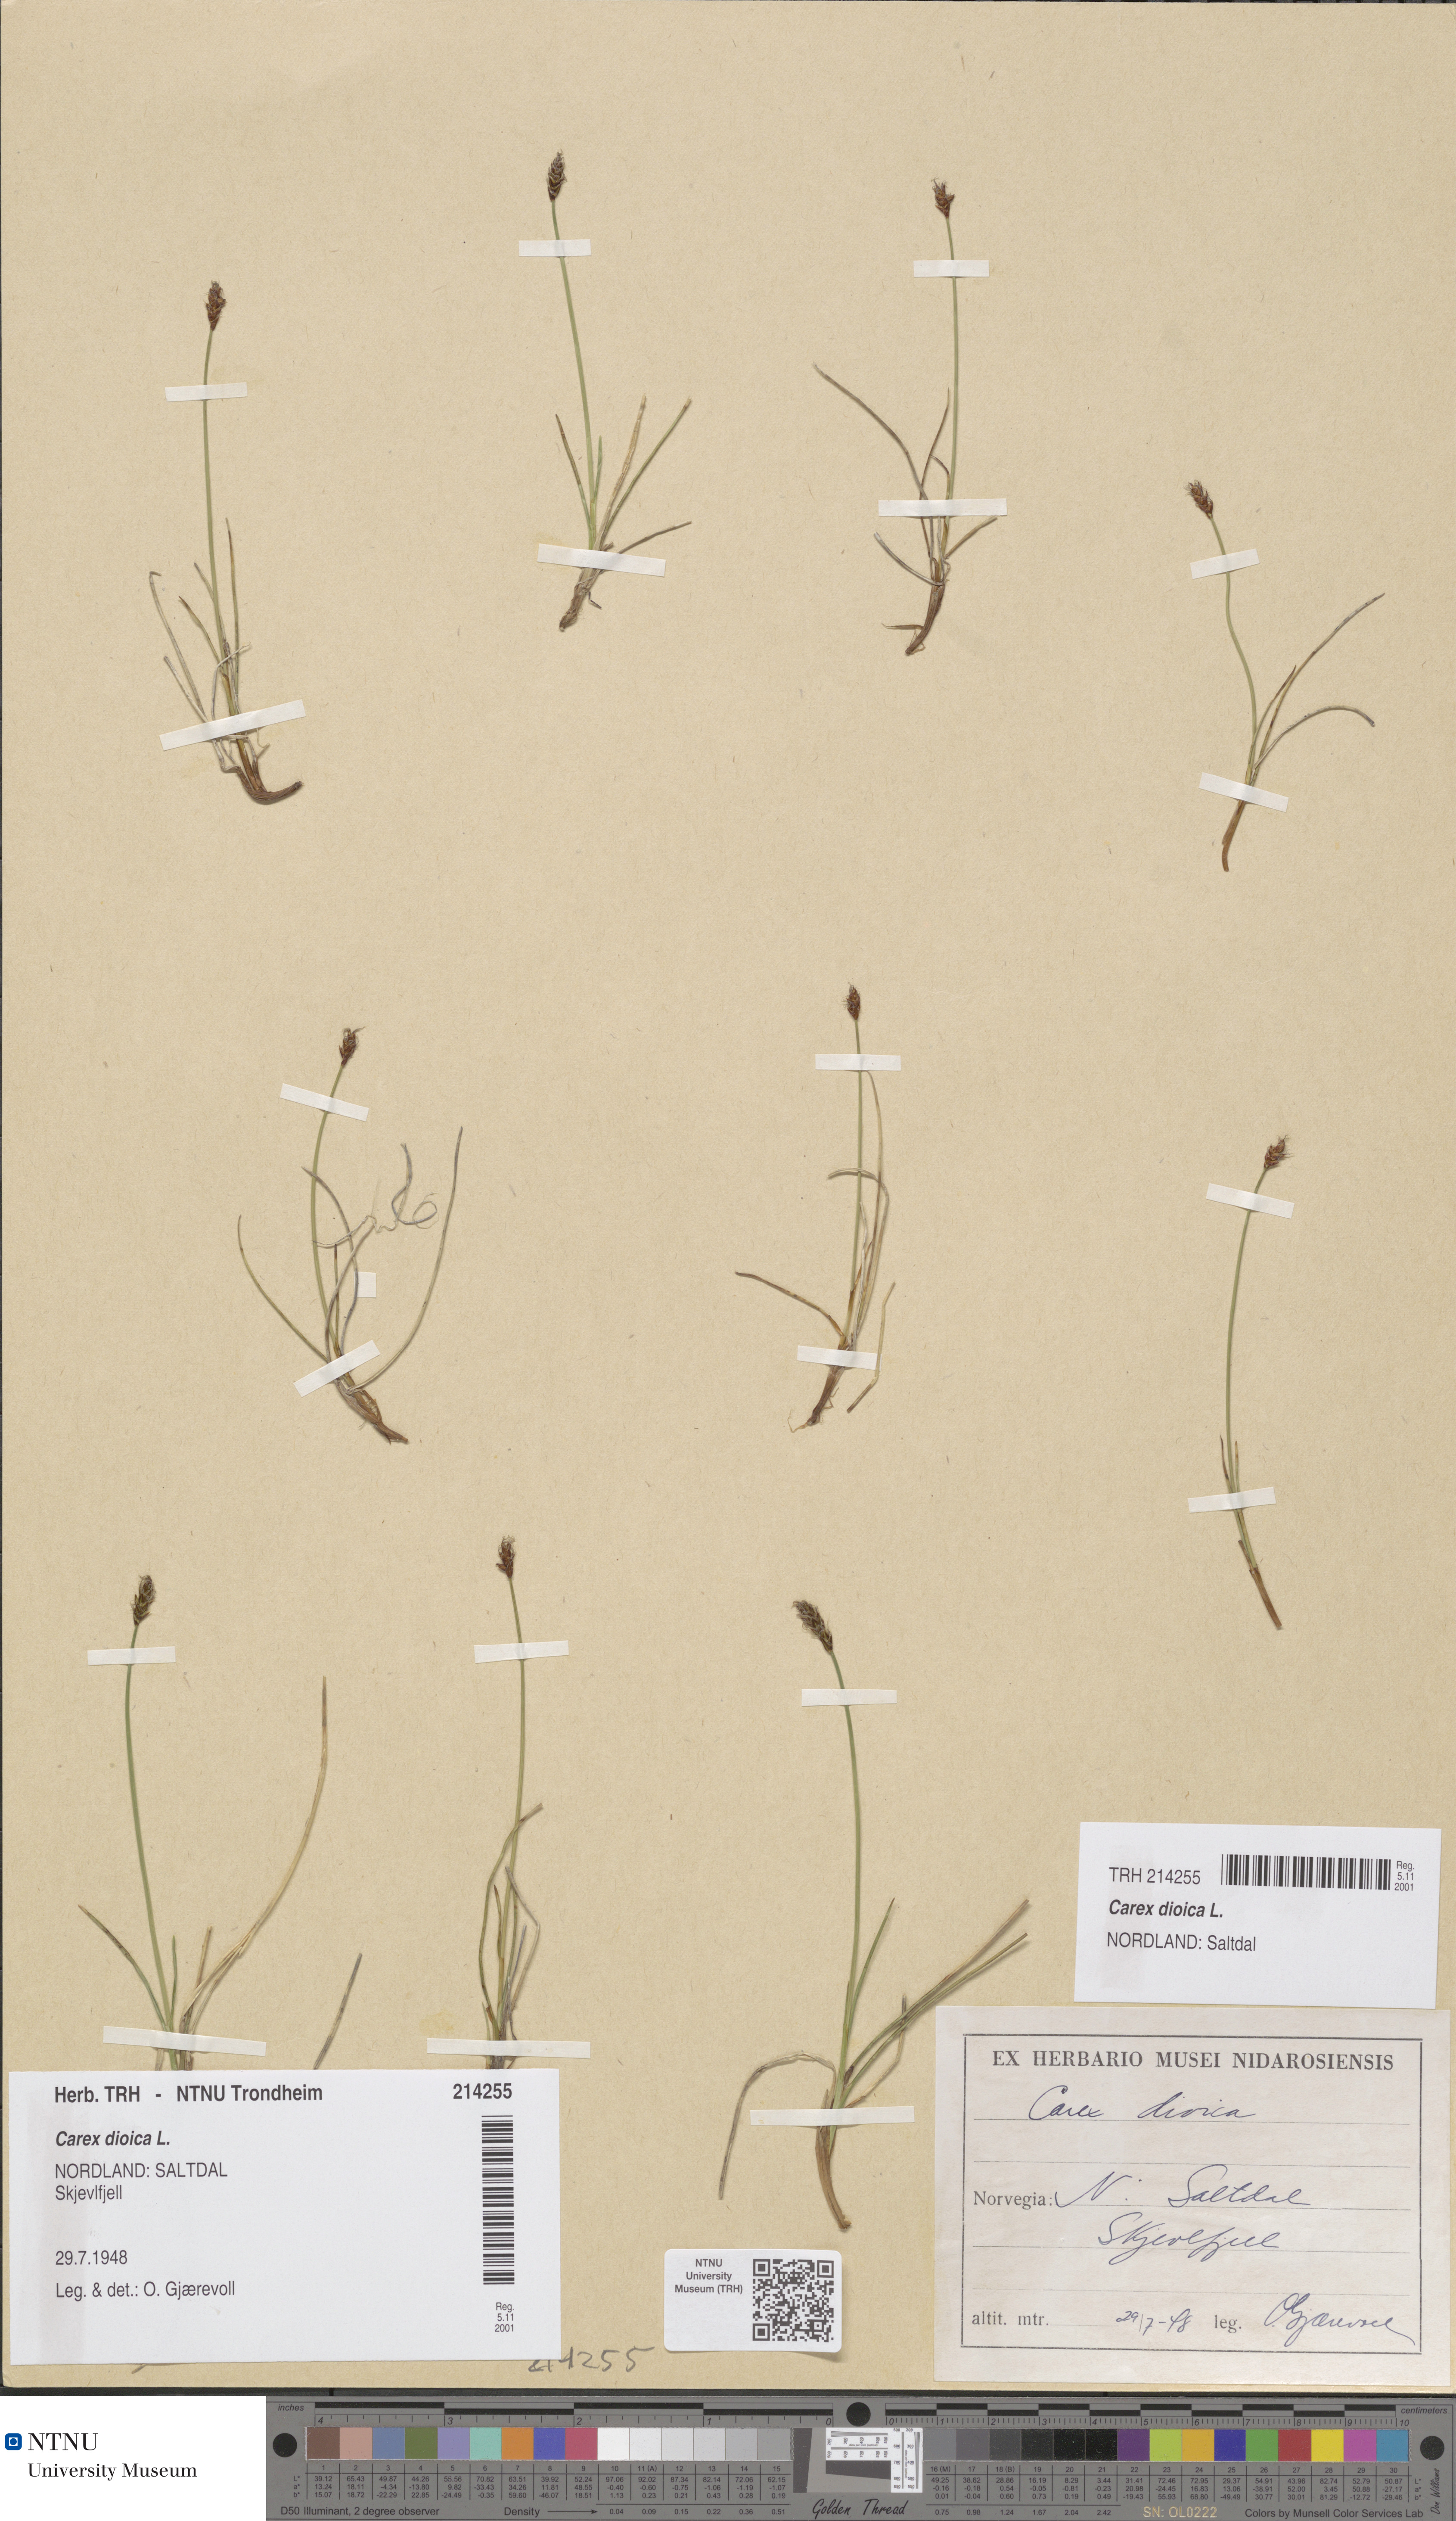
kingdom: Plantae
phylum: Tracheophyta
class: Liliopsida
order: Poales
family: Cyperaceae
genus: Carex
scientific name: Carex dioica
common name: Dioecious sedge
